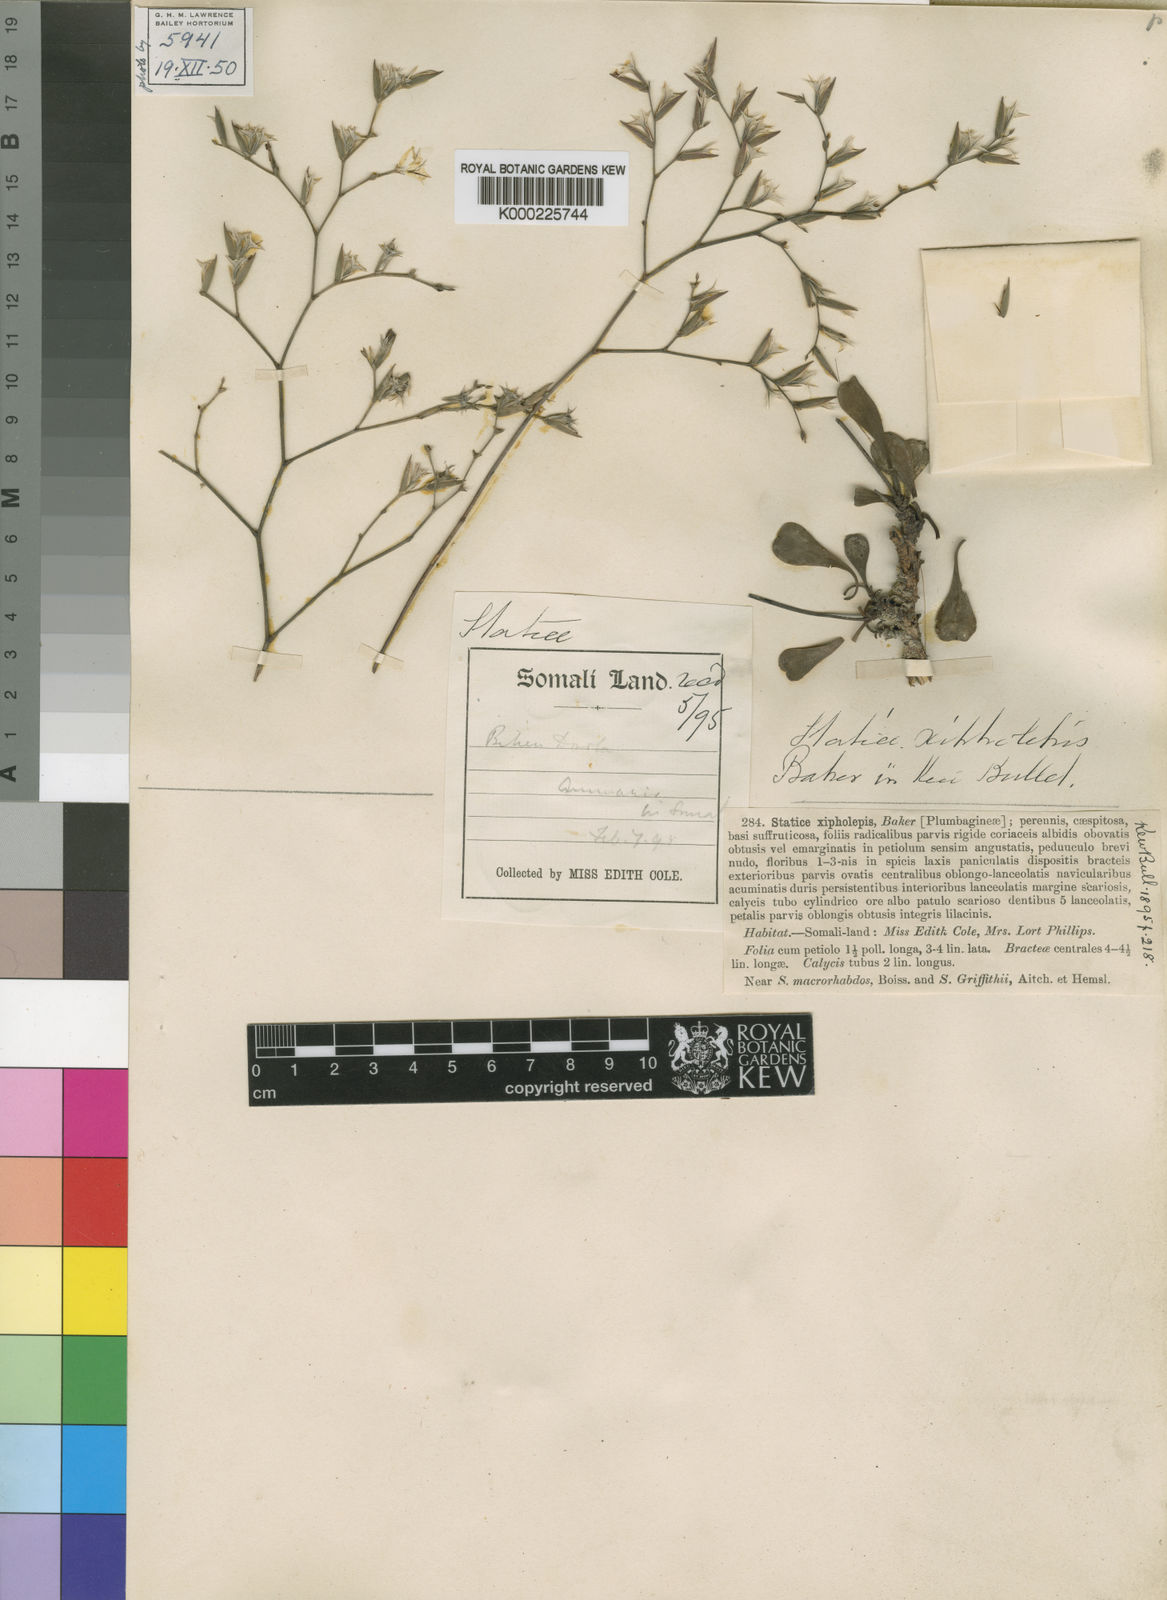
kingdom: Plantae
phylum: Tracheophyta
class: Magnoliopsida
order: Caryophyllales
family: Plumbaginaceae
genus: Limonium
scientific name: Limonium xipholepis
